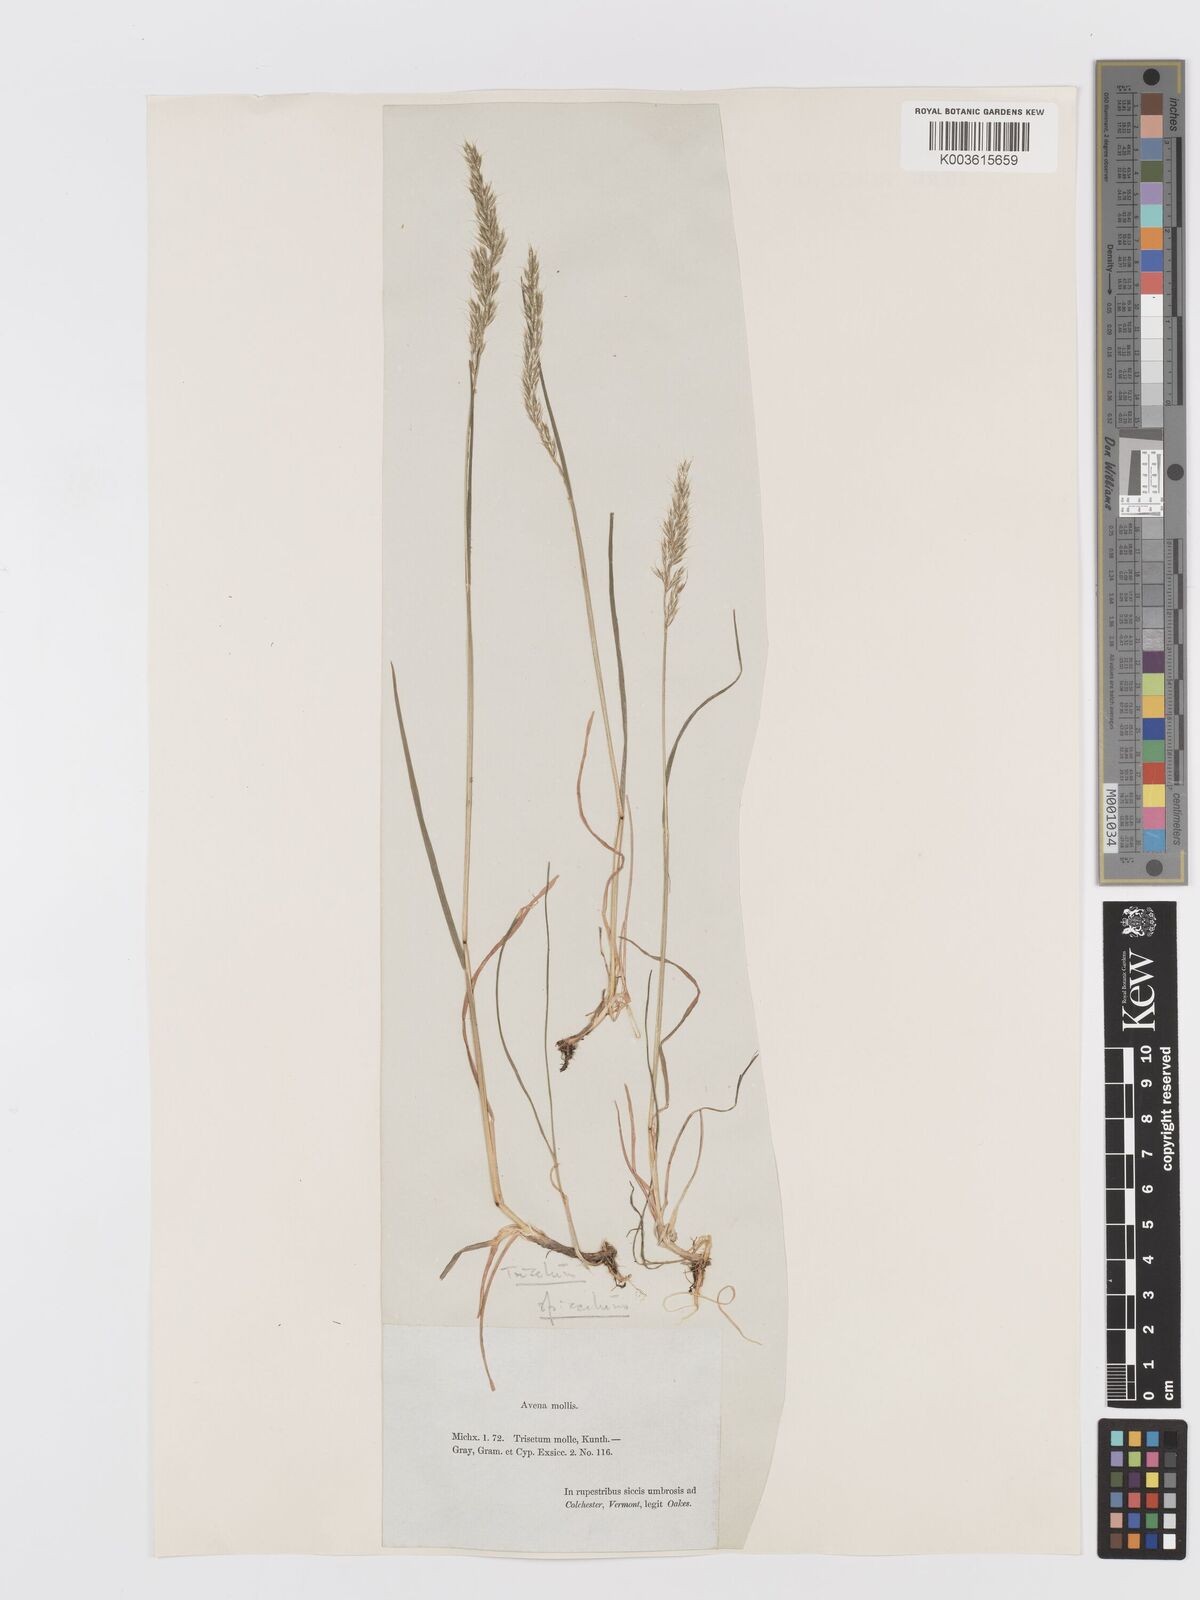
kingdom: Plantae
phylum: Tracheophyta
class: Liliopsida
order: Poales
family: Poaceae
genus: Koeleria
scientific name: Koeleria spicata
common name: Mountain trisetum
